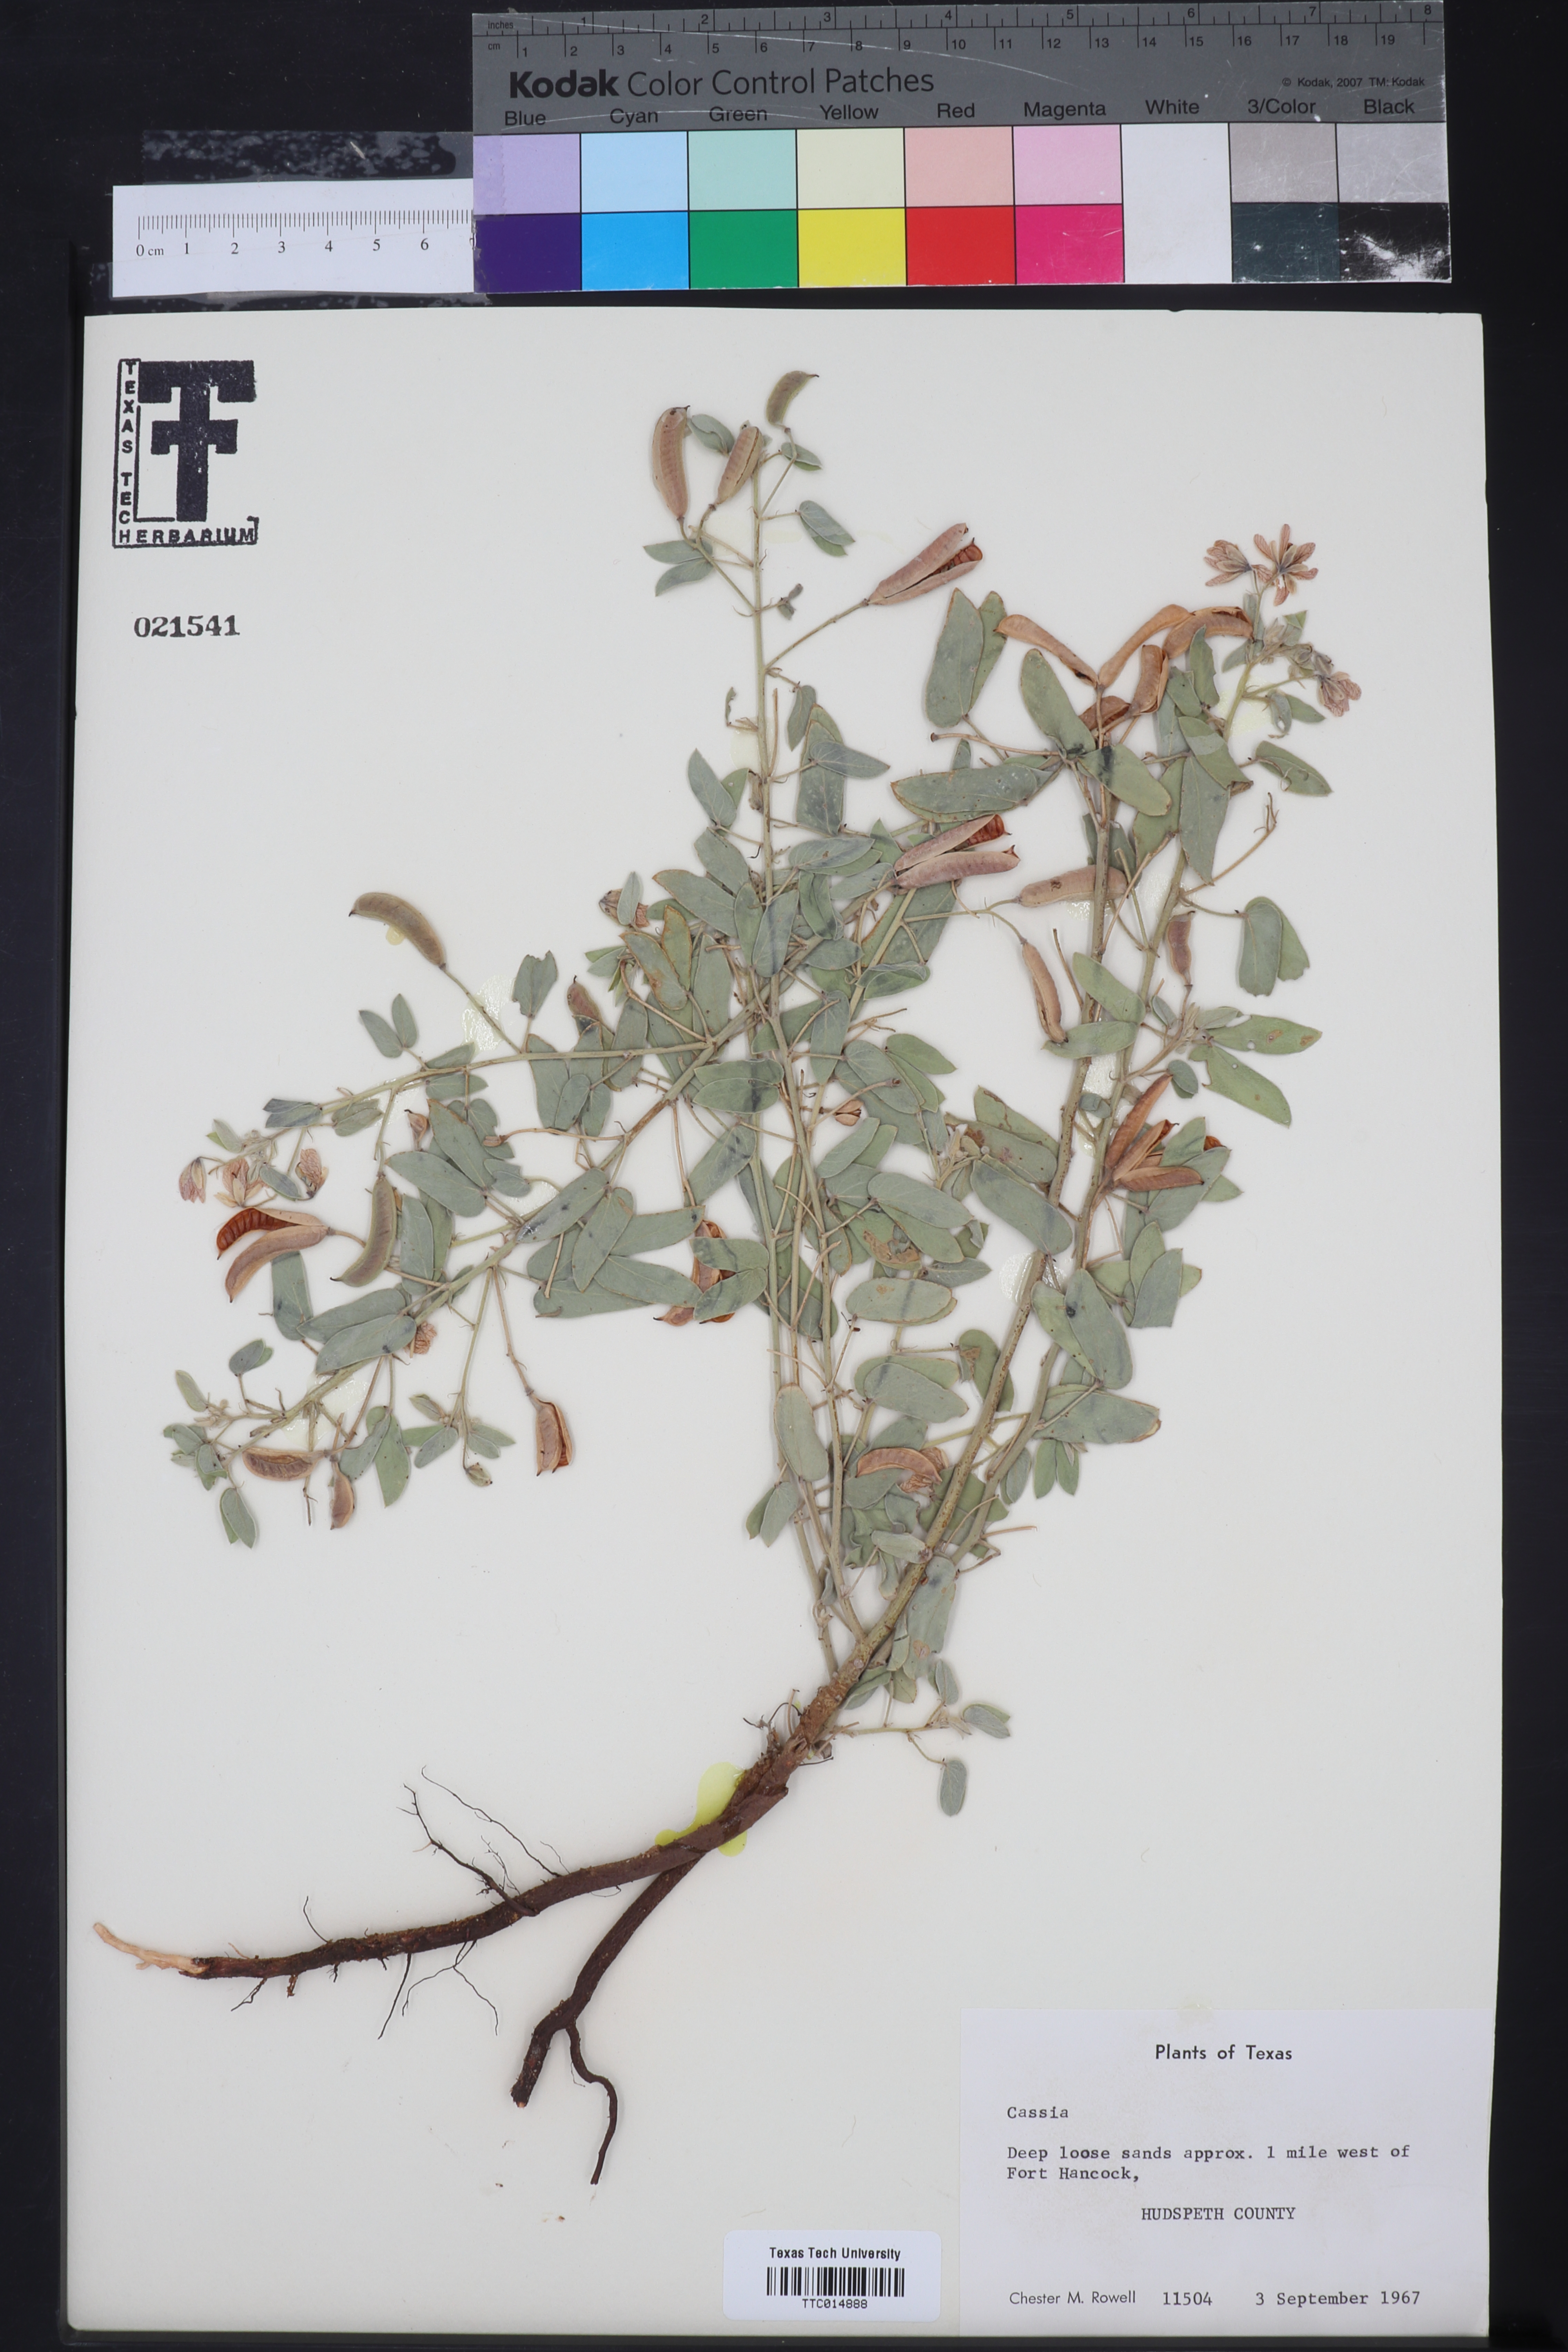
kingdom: Plantae
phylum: Tracheophyta
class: Magnoliopsida
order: Fabales
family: Fabaceae
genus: Cassia
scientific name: Cassia
